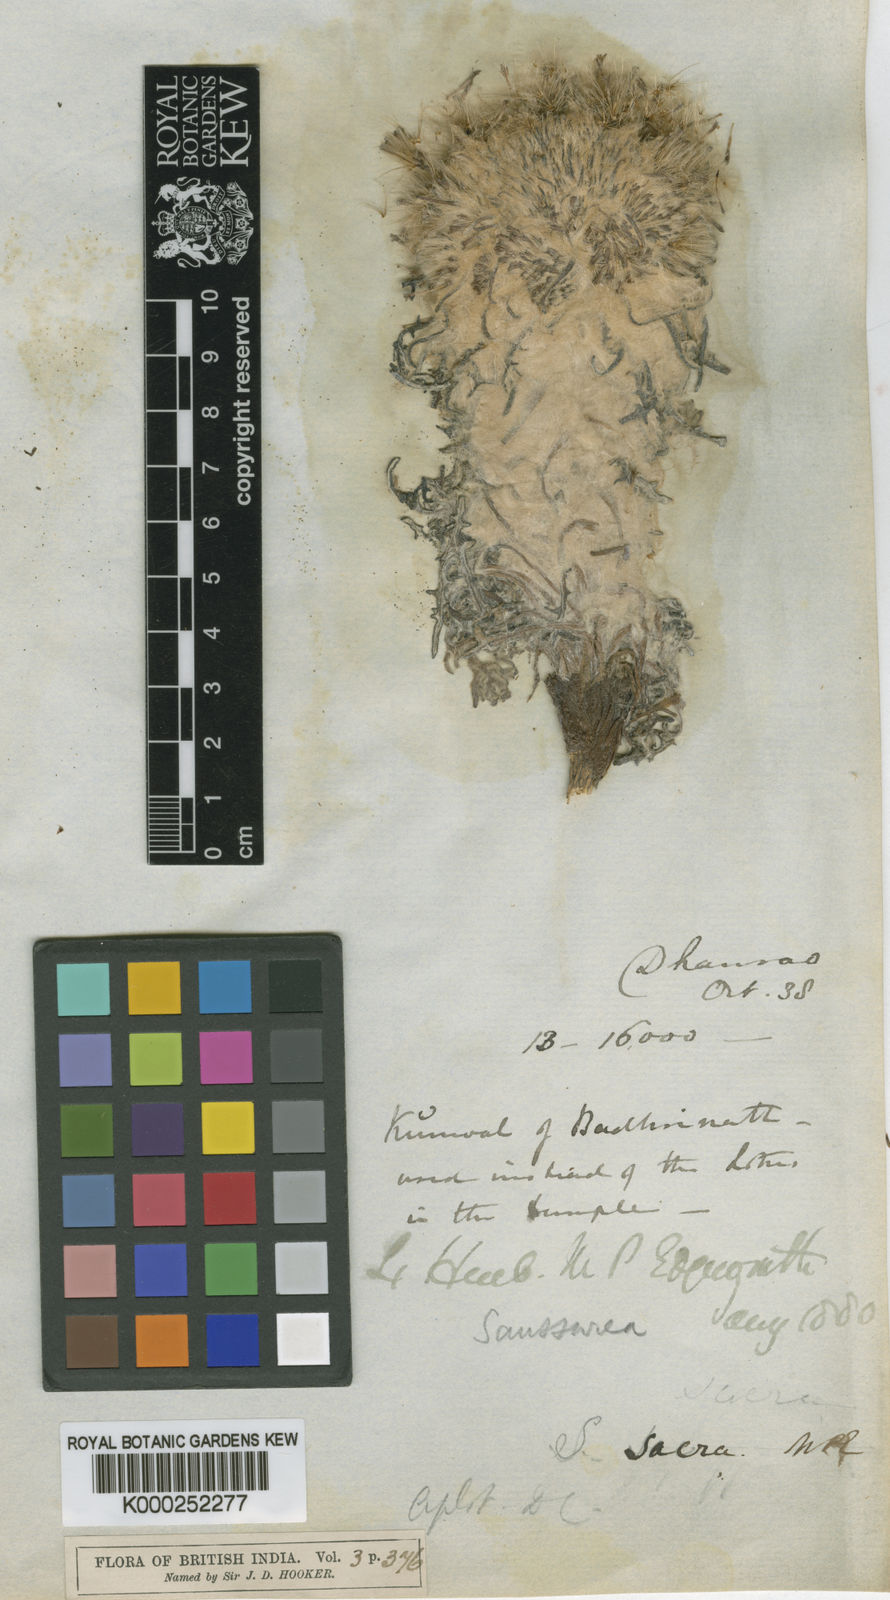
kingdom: Plantae
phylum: Tracheophyta
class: Magnoliopsida
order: Asterales
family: Asteraceae
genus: Saussurea
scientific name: Saussurea simpsoniana
